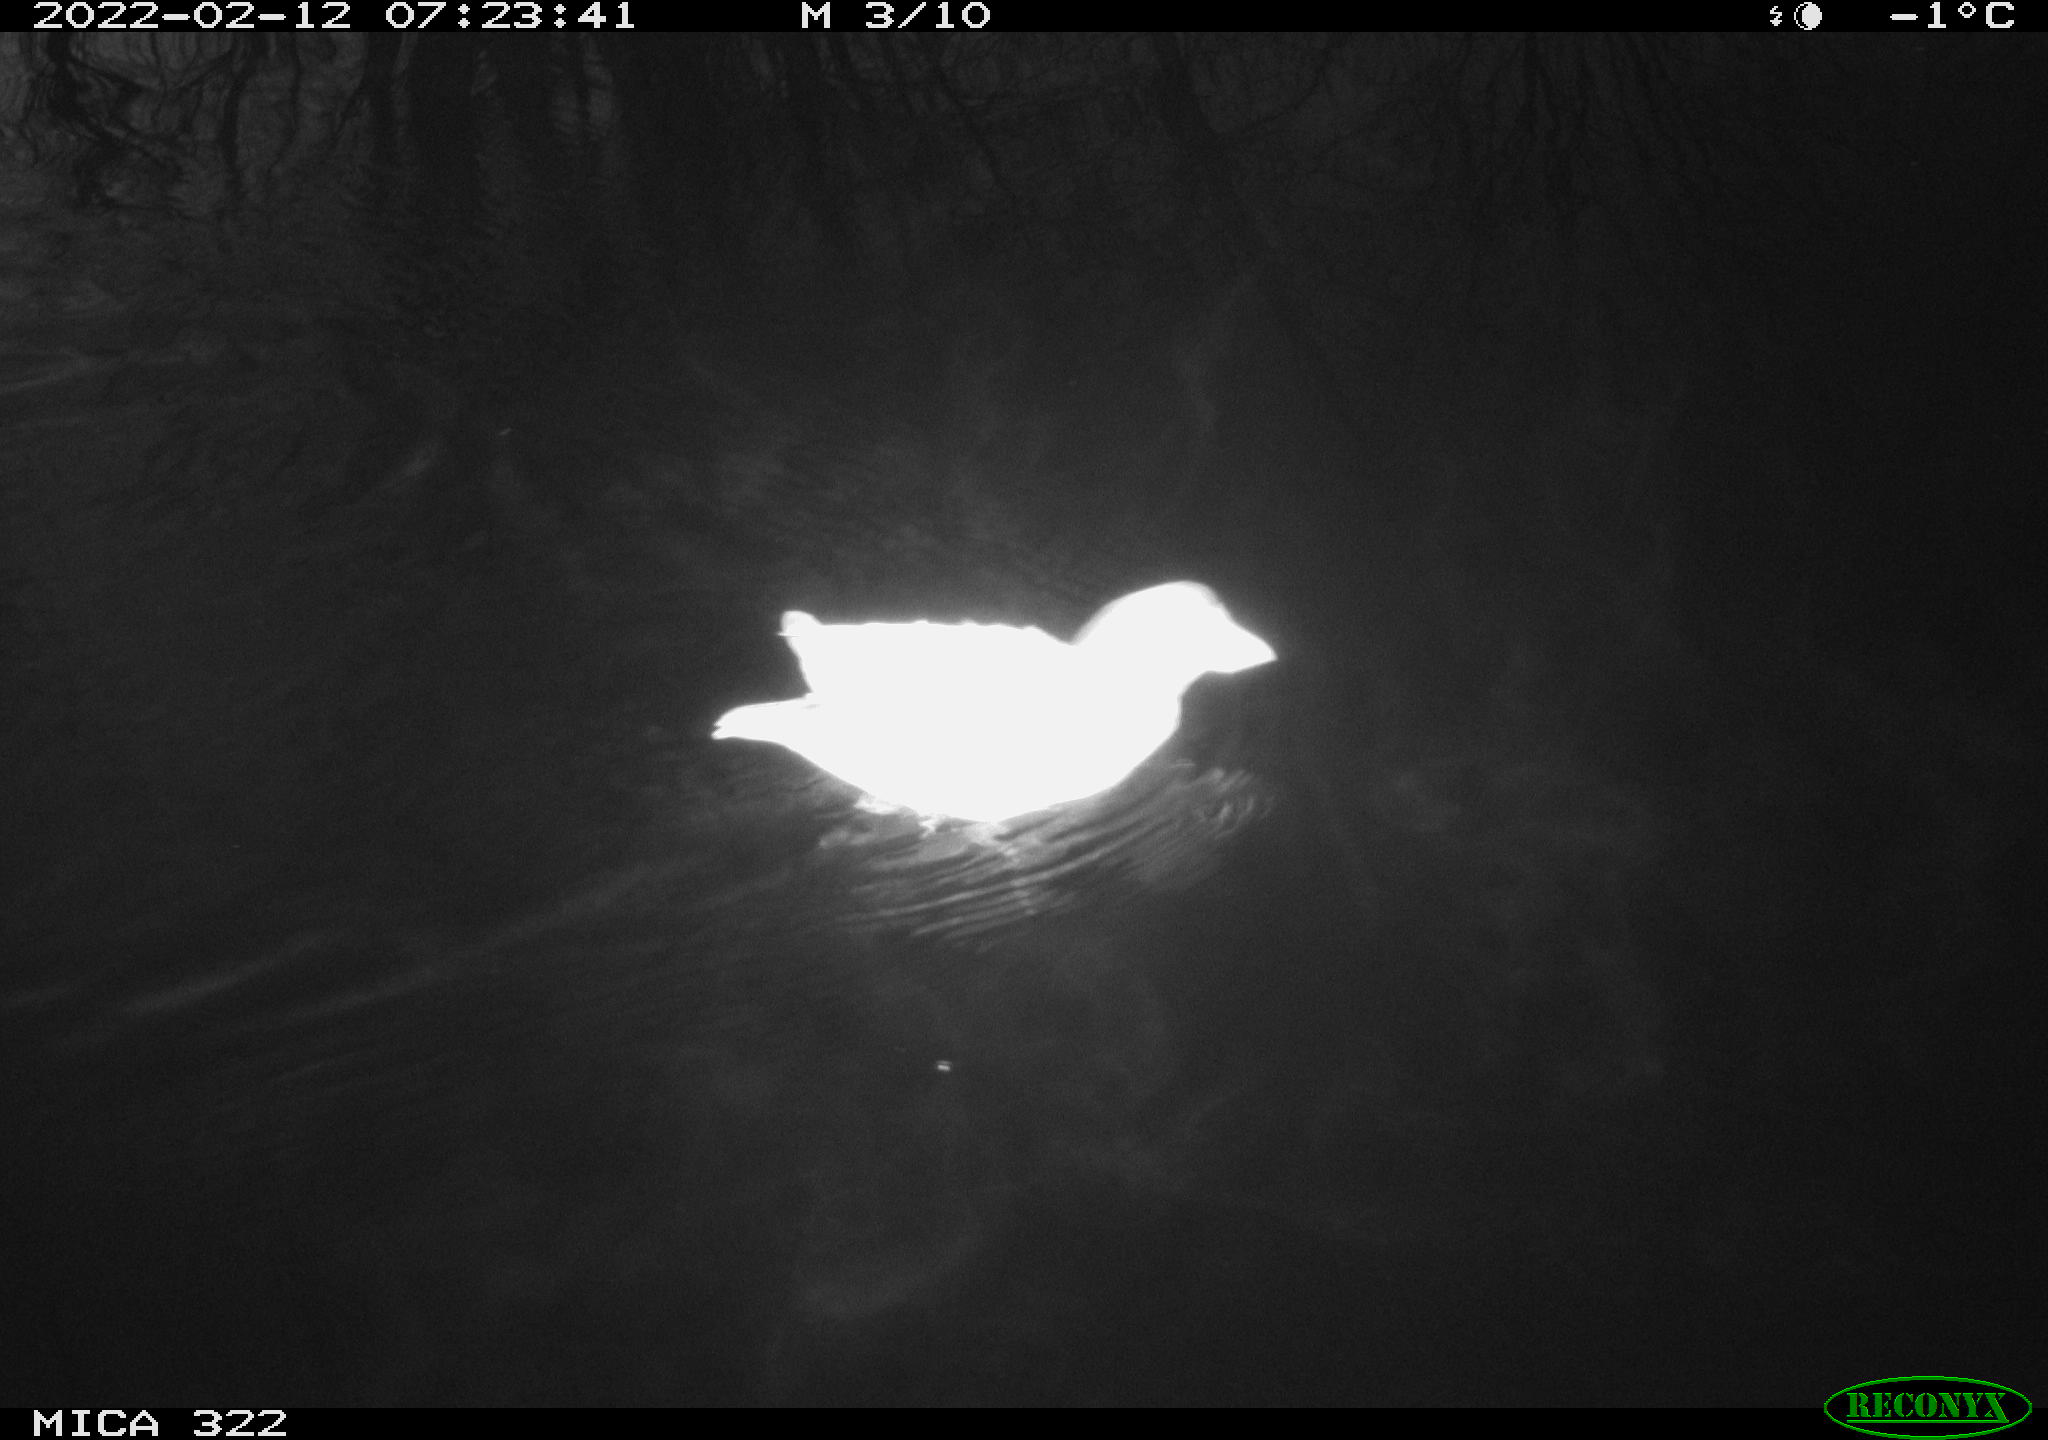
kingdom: Animalia
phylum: Chordata
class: Aves
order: Gruiformes
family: Rallidae
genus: Gallinula
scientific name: Gallinula chloropus
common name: Common moorhen
